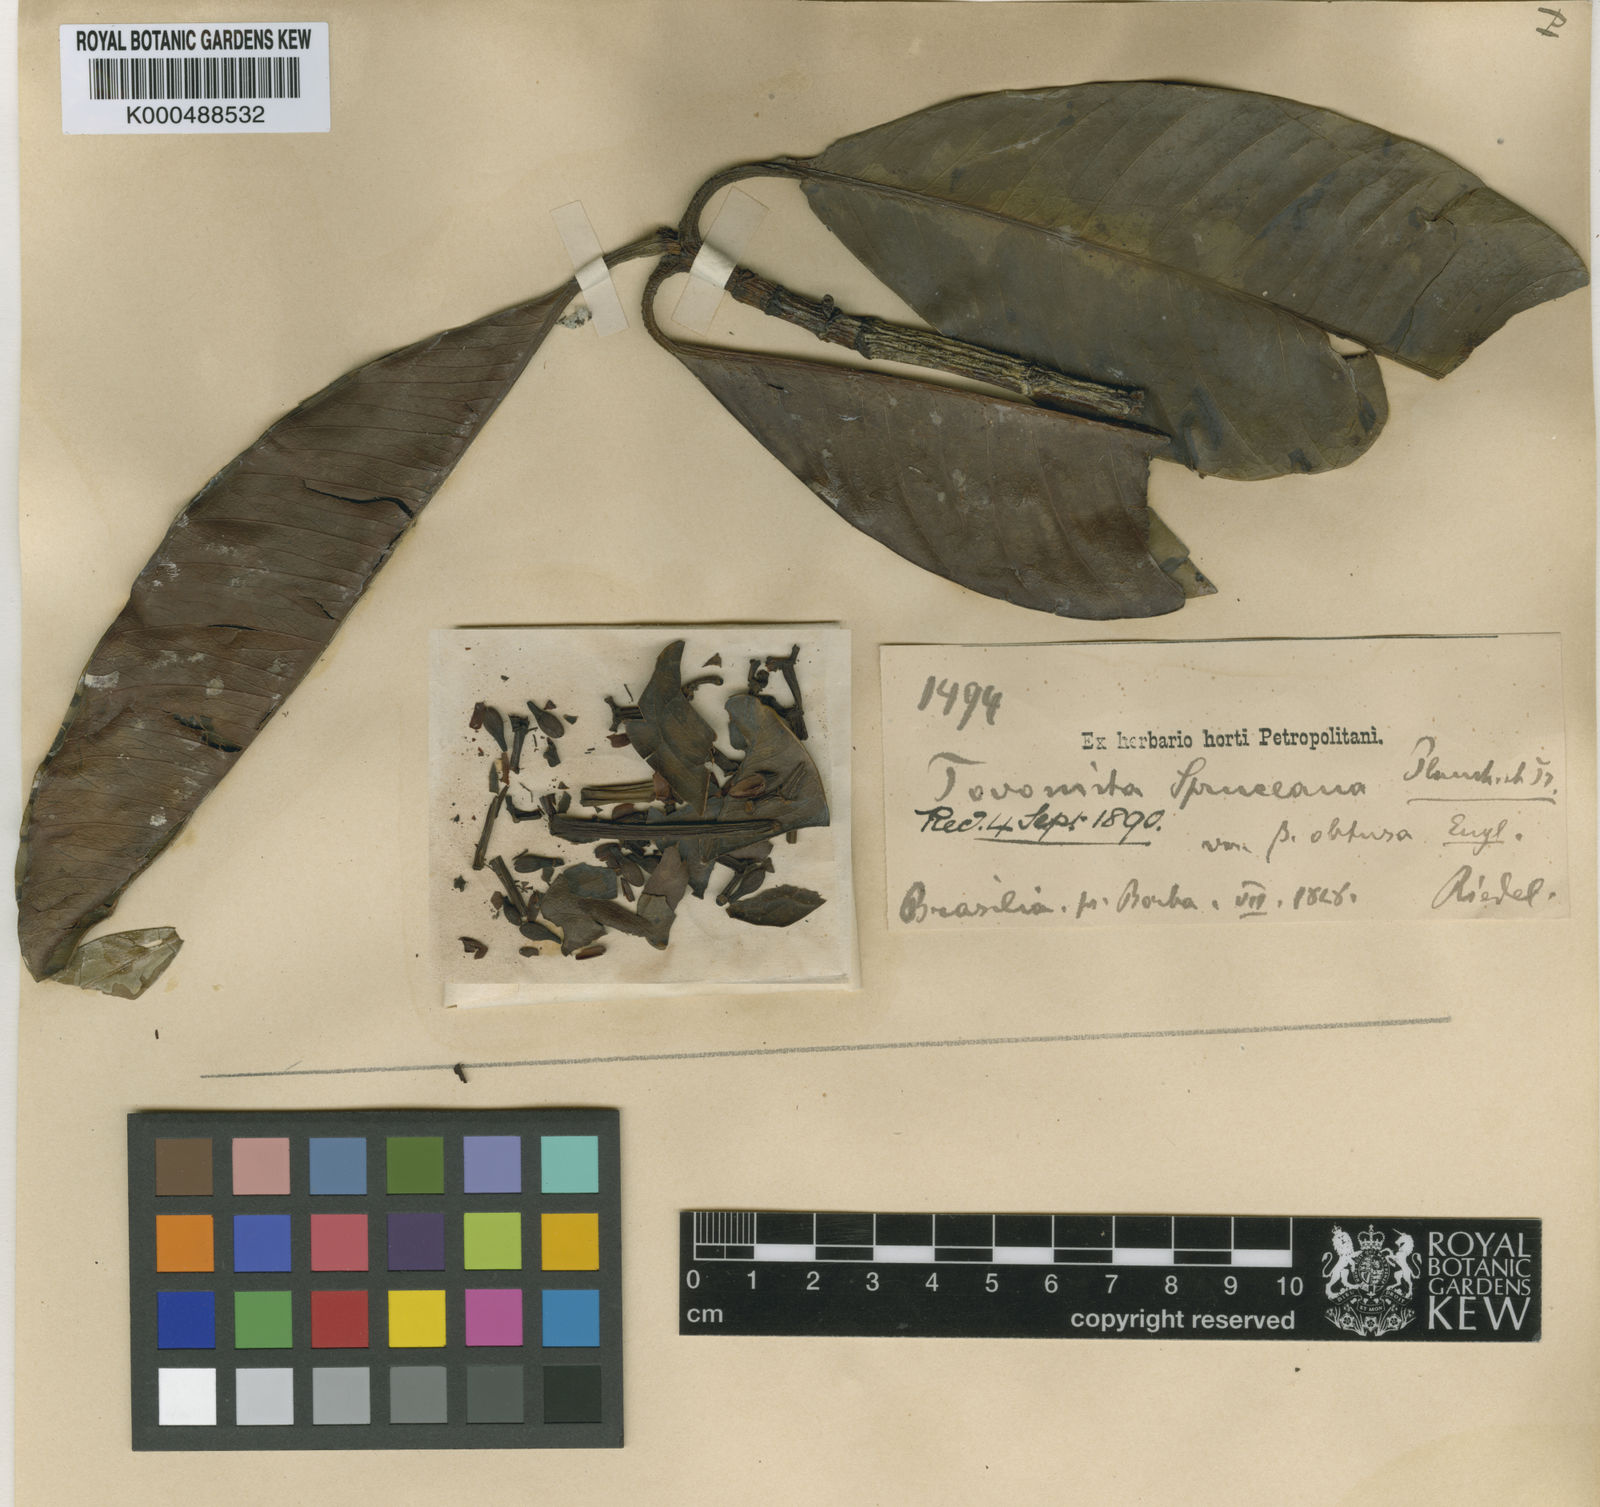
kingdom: Plantae
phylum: Tracheophyta
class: Magnoliopsida
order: Malpighiales
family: Clusiaceae
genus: Tovomita
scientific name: Tovomita spruceana
